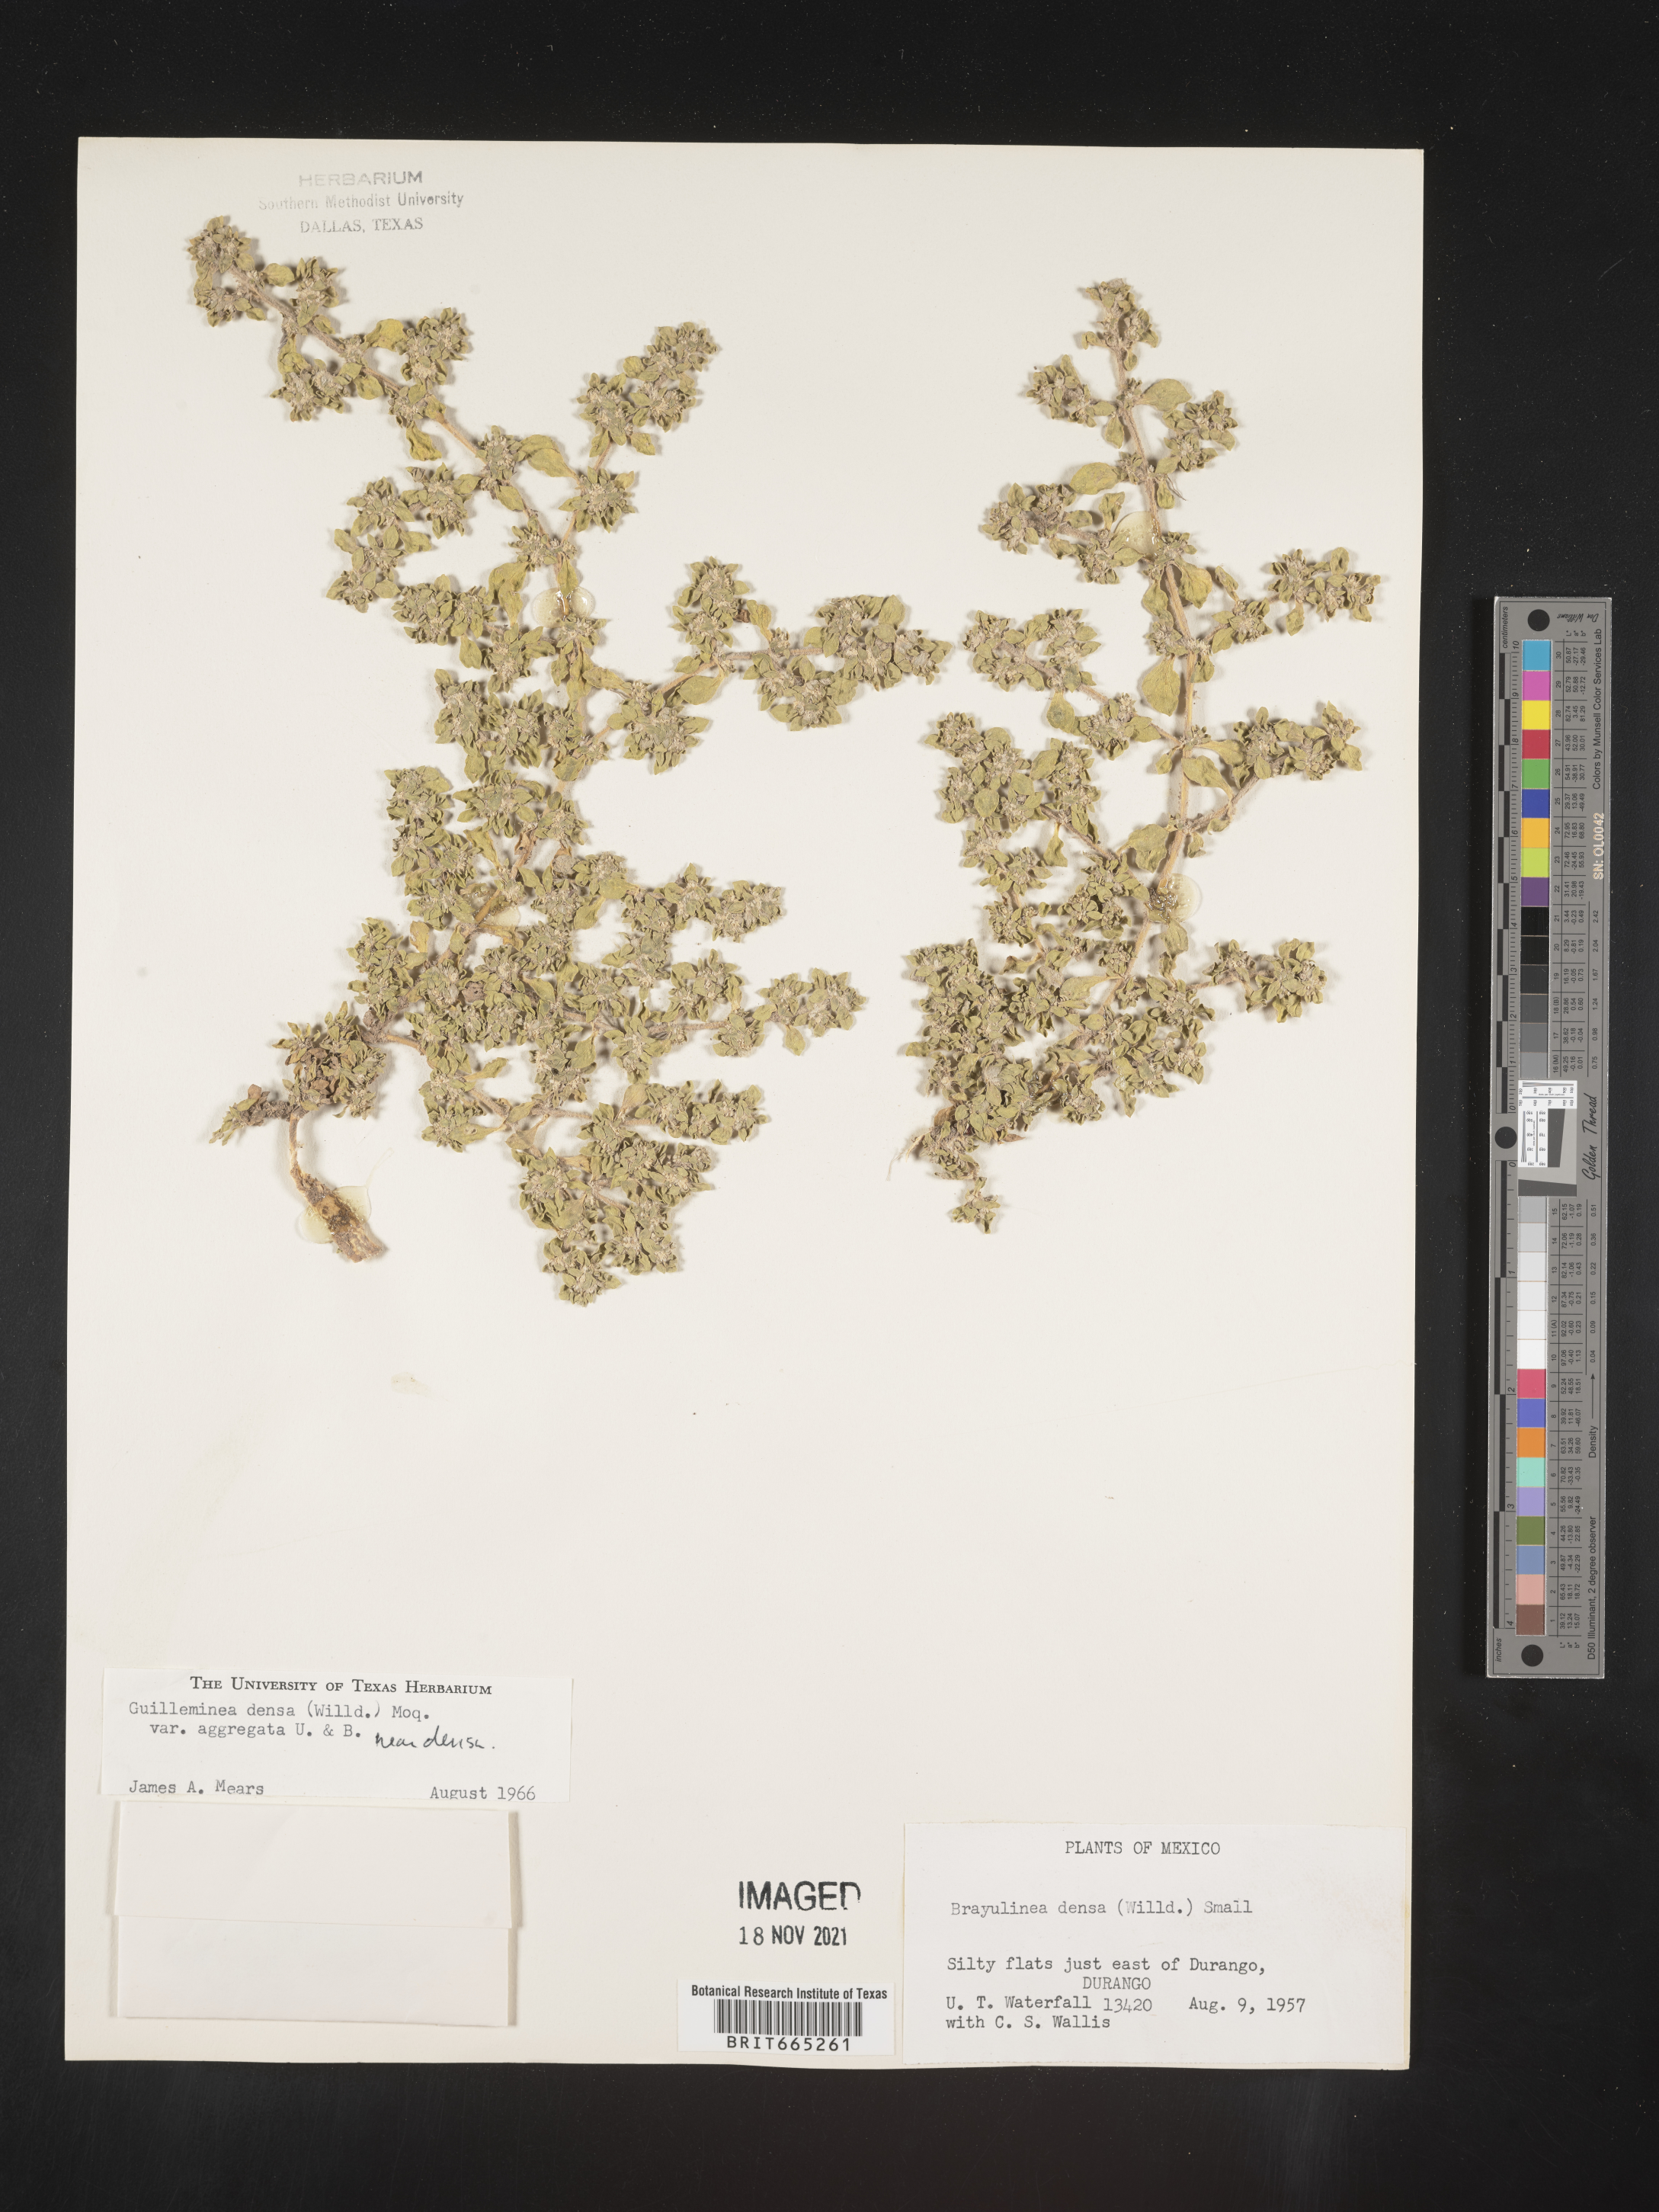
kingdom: Plantae
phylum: Tracheophyta
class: Magnoliopsida
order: Caryophyllales
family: Amaranthaceae
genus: Guilleminea
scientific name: Guilleminea densa
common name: Small matweed
